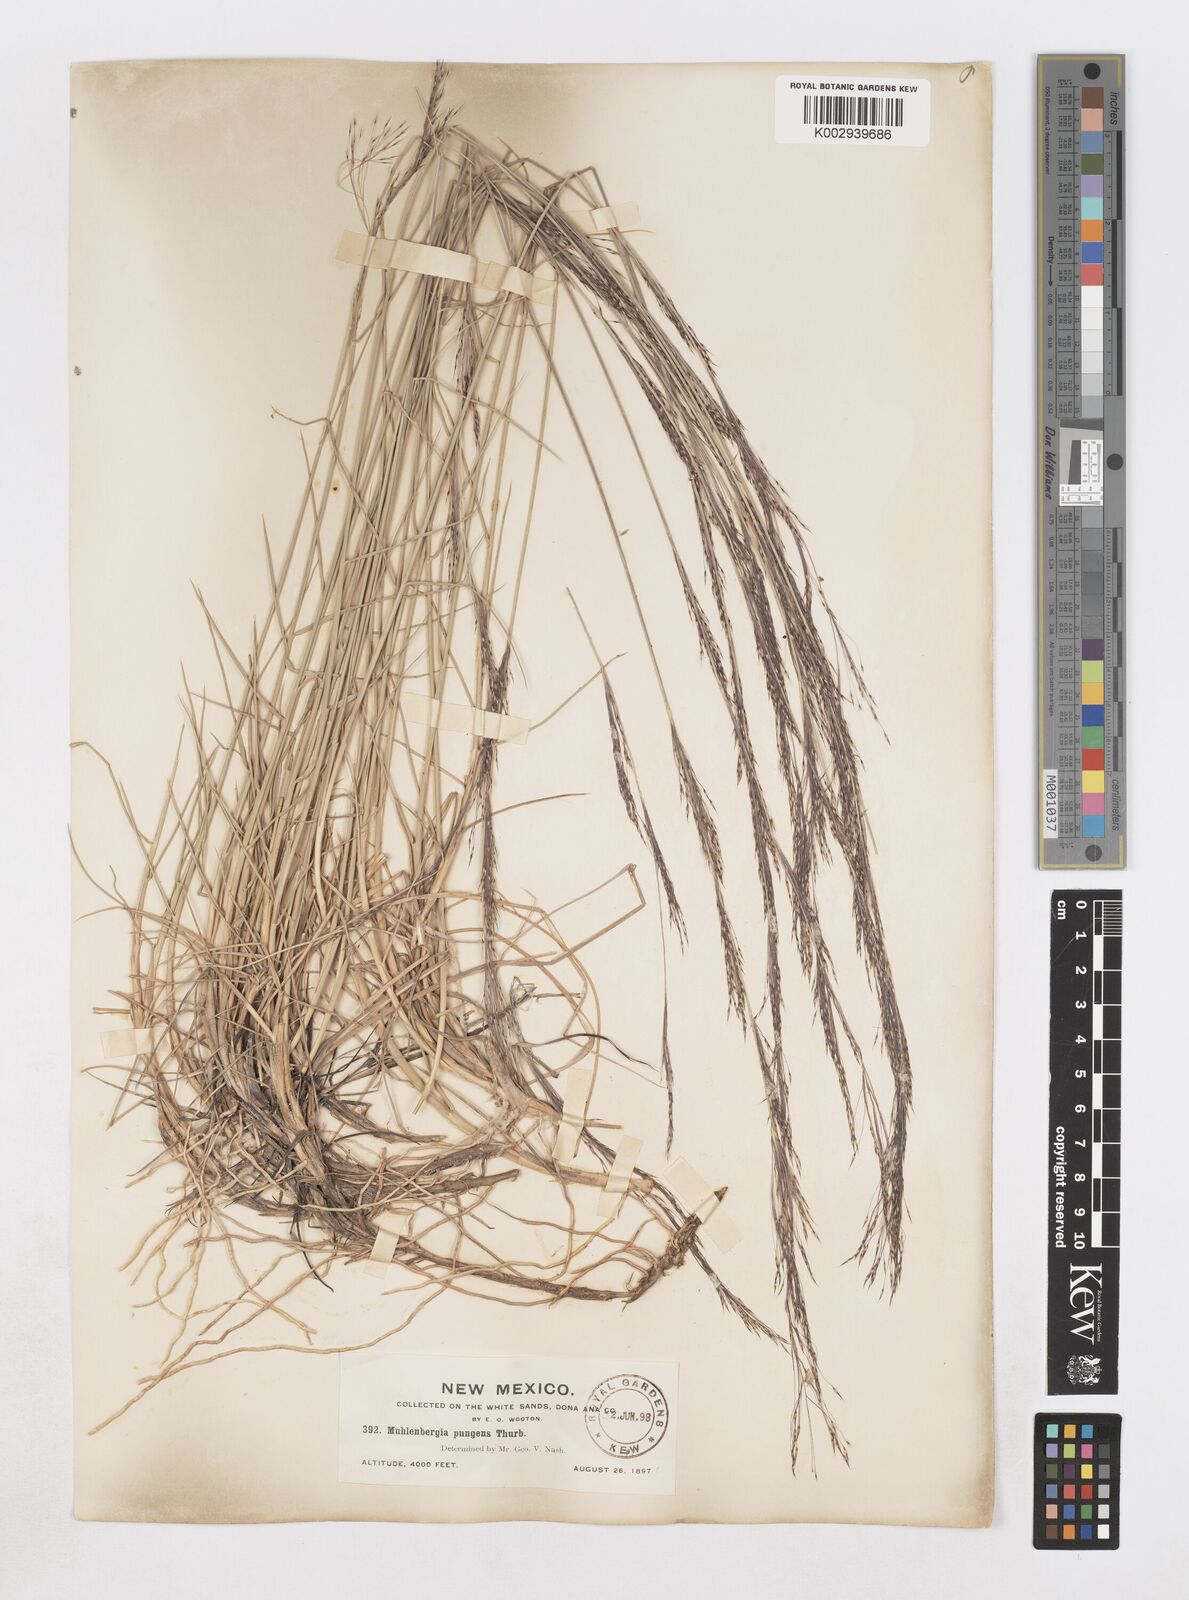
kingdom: Plantae
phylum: Tracheophyta
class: Liliopsida
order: Poales
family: Poaceae
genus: Muhlenbergia
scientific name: Muhlenbergia pungens
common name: Sandhill muhly
